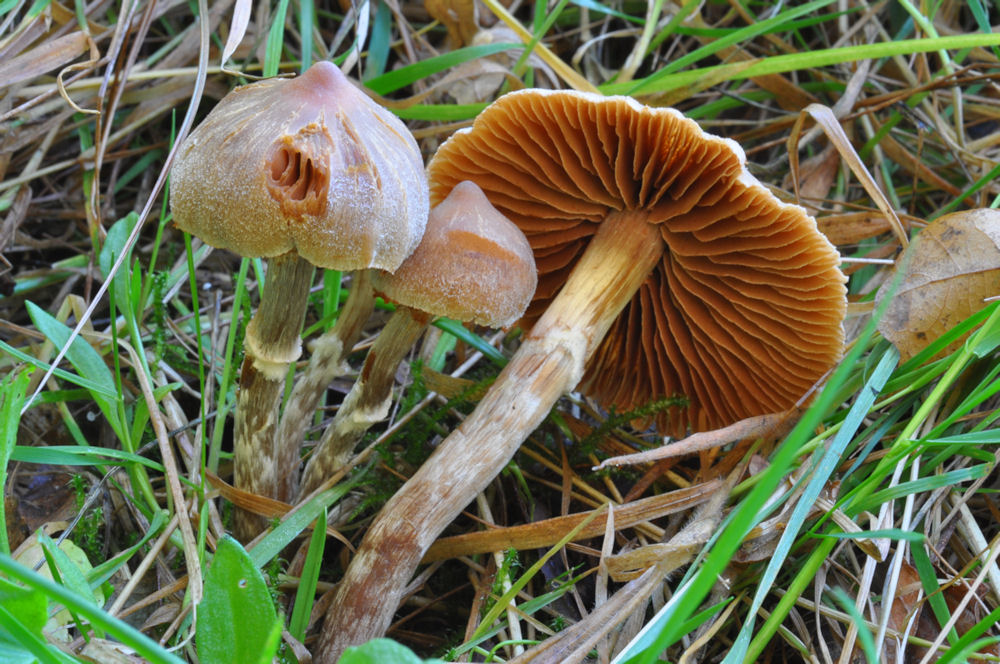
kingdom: Fungi
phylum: Basidiomycota
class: Agaricomycetes
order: Agaricales
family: Cortinariaceae
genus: Cortinarius
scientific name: Cortinarius albolens
